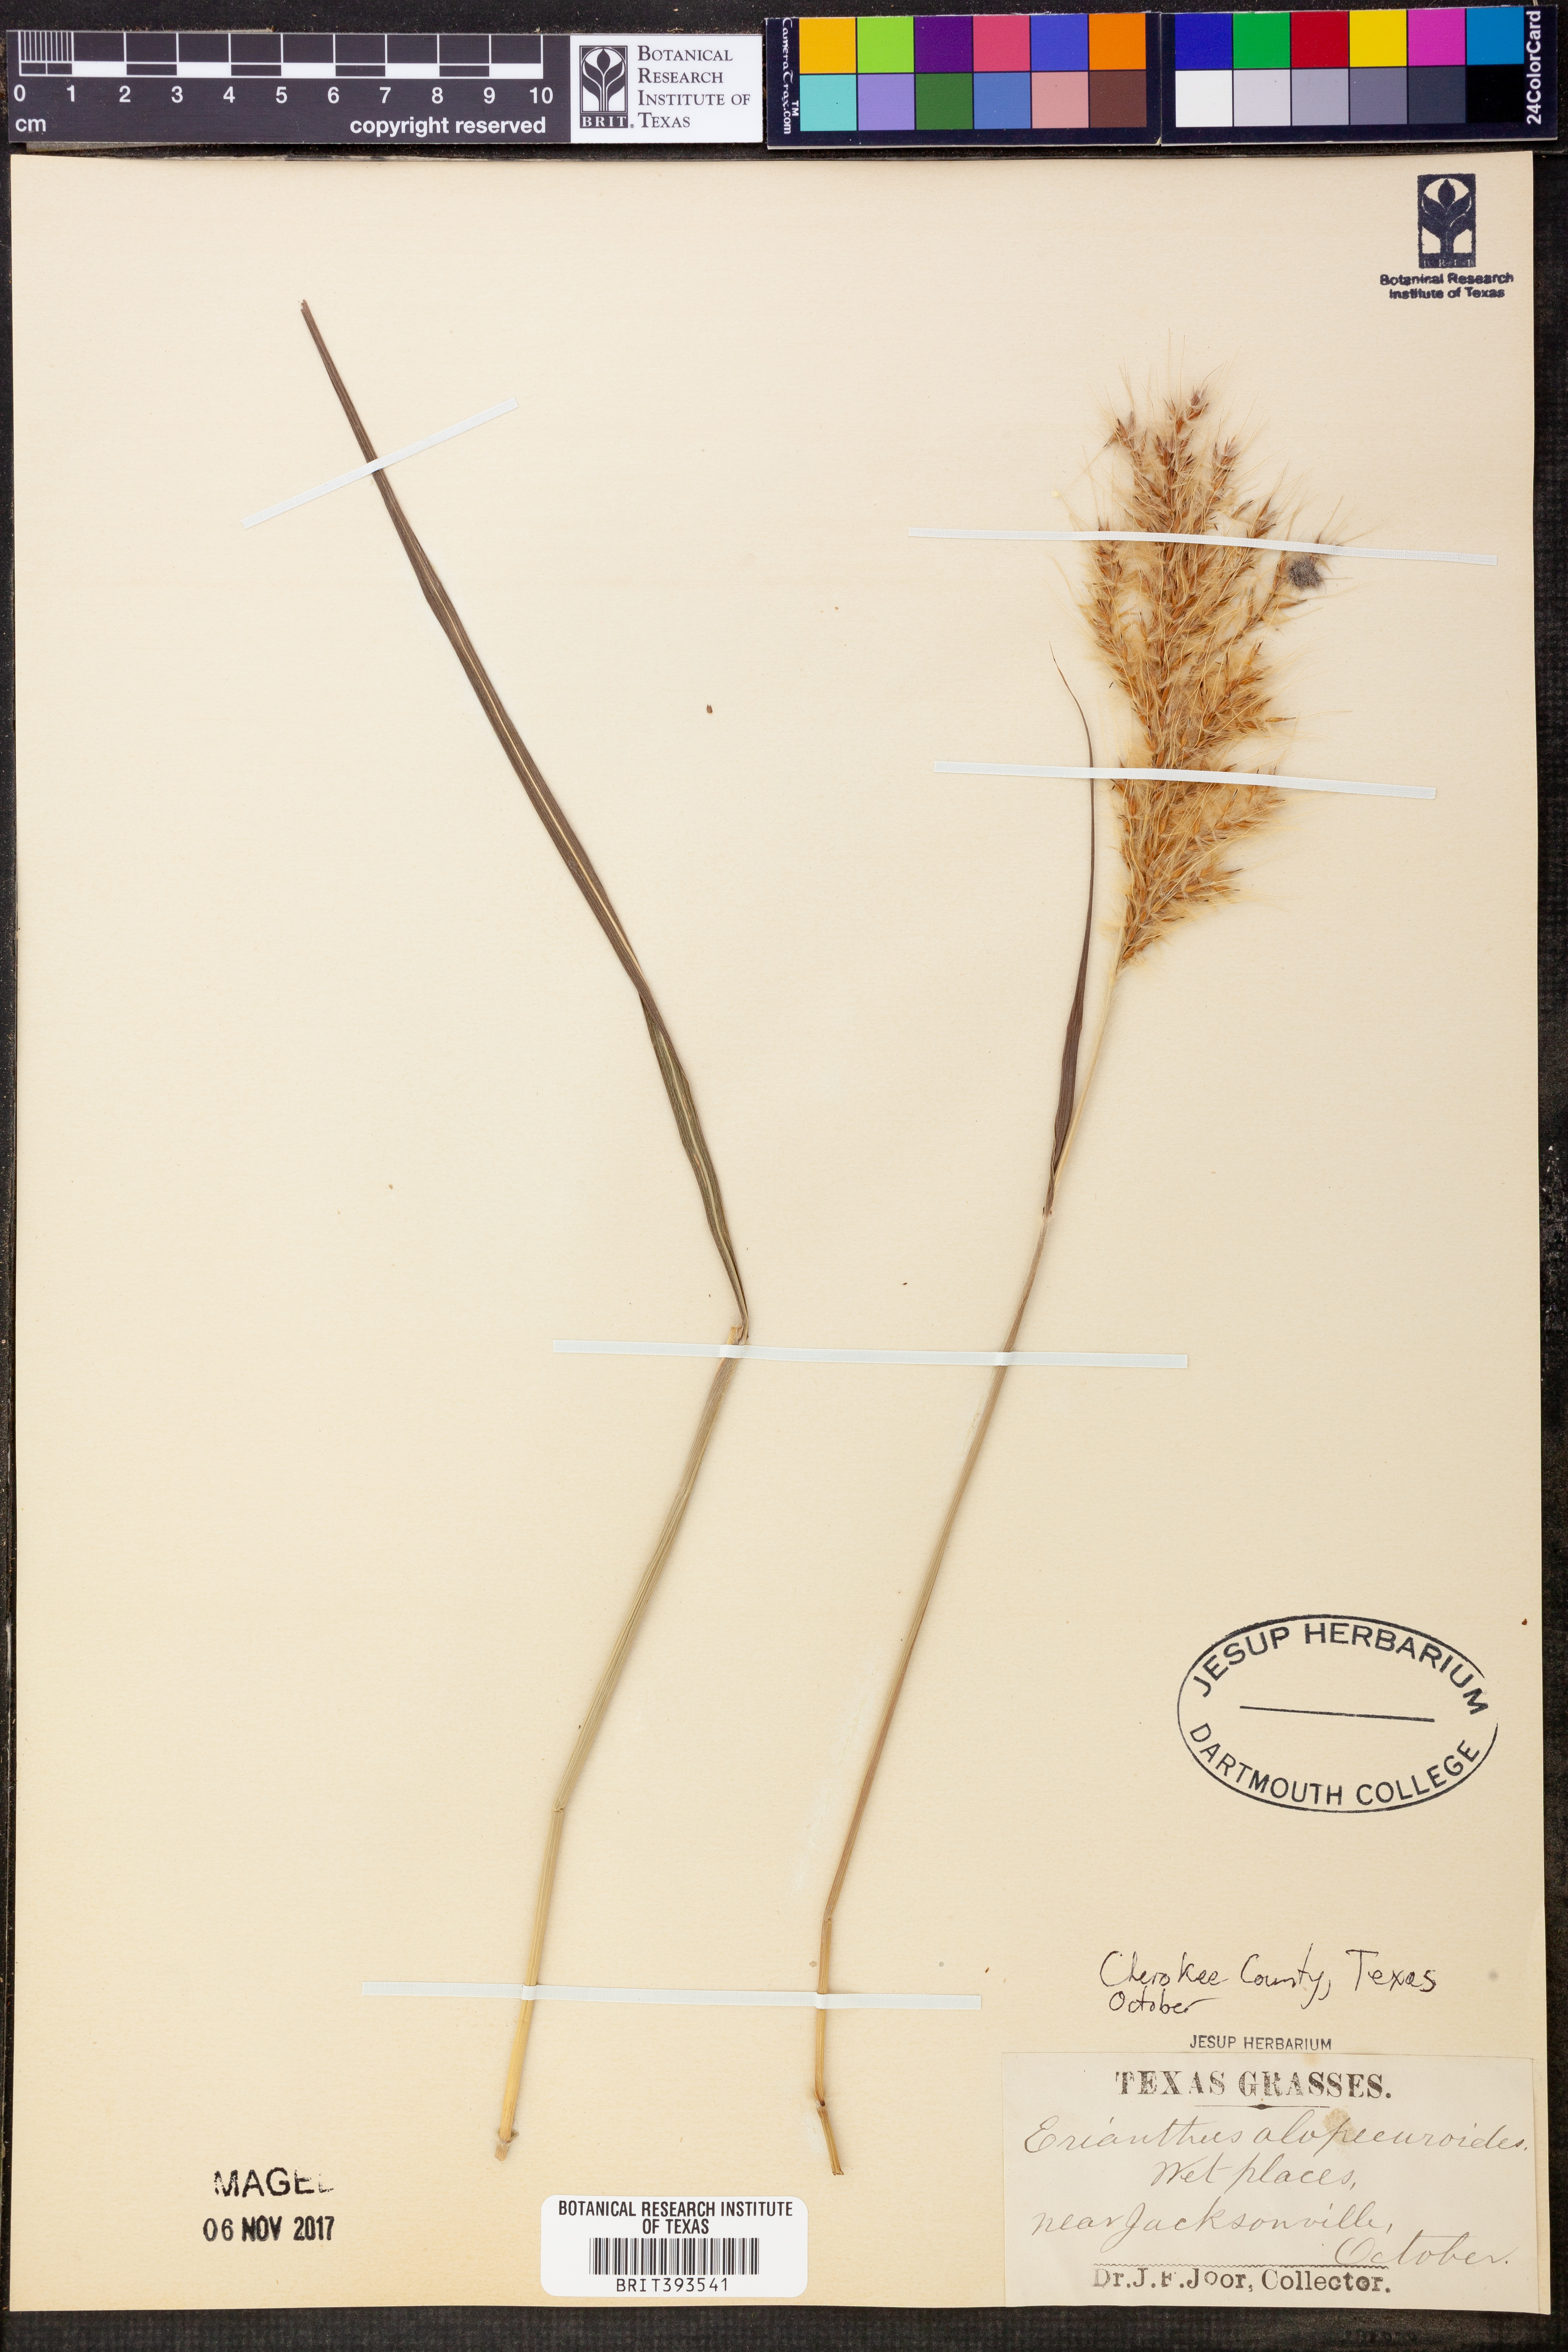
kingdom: Plantae
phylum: Tracheophyta
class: Liliopsida
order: Poales
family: Poaceae
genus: Erianthus
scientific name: Erianthus alopecuroides
